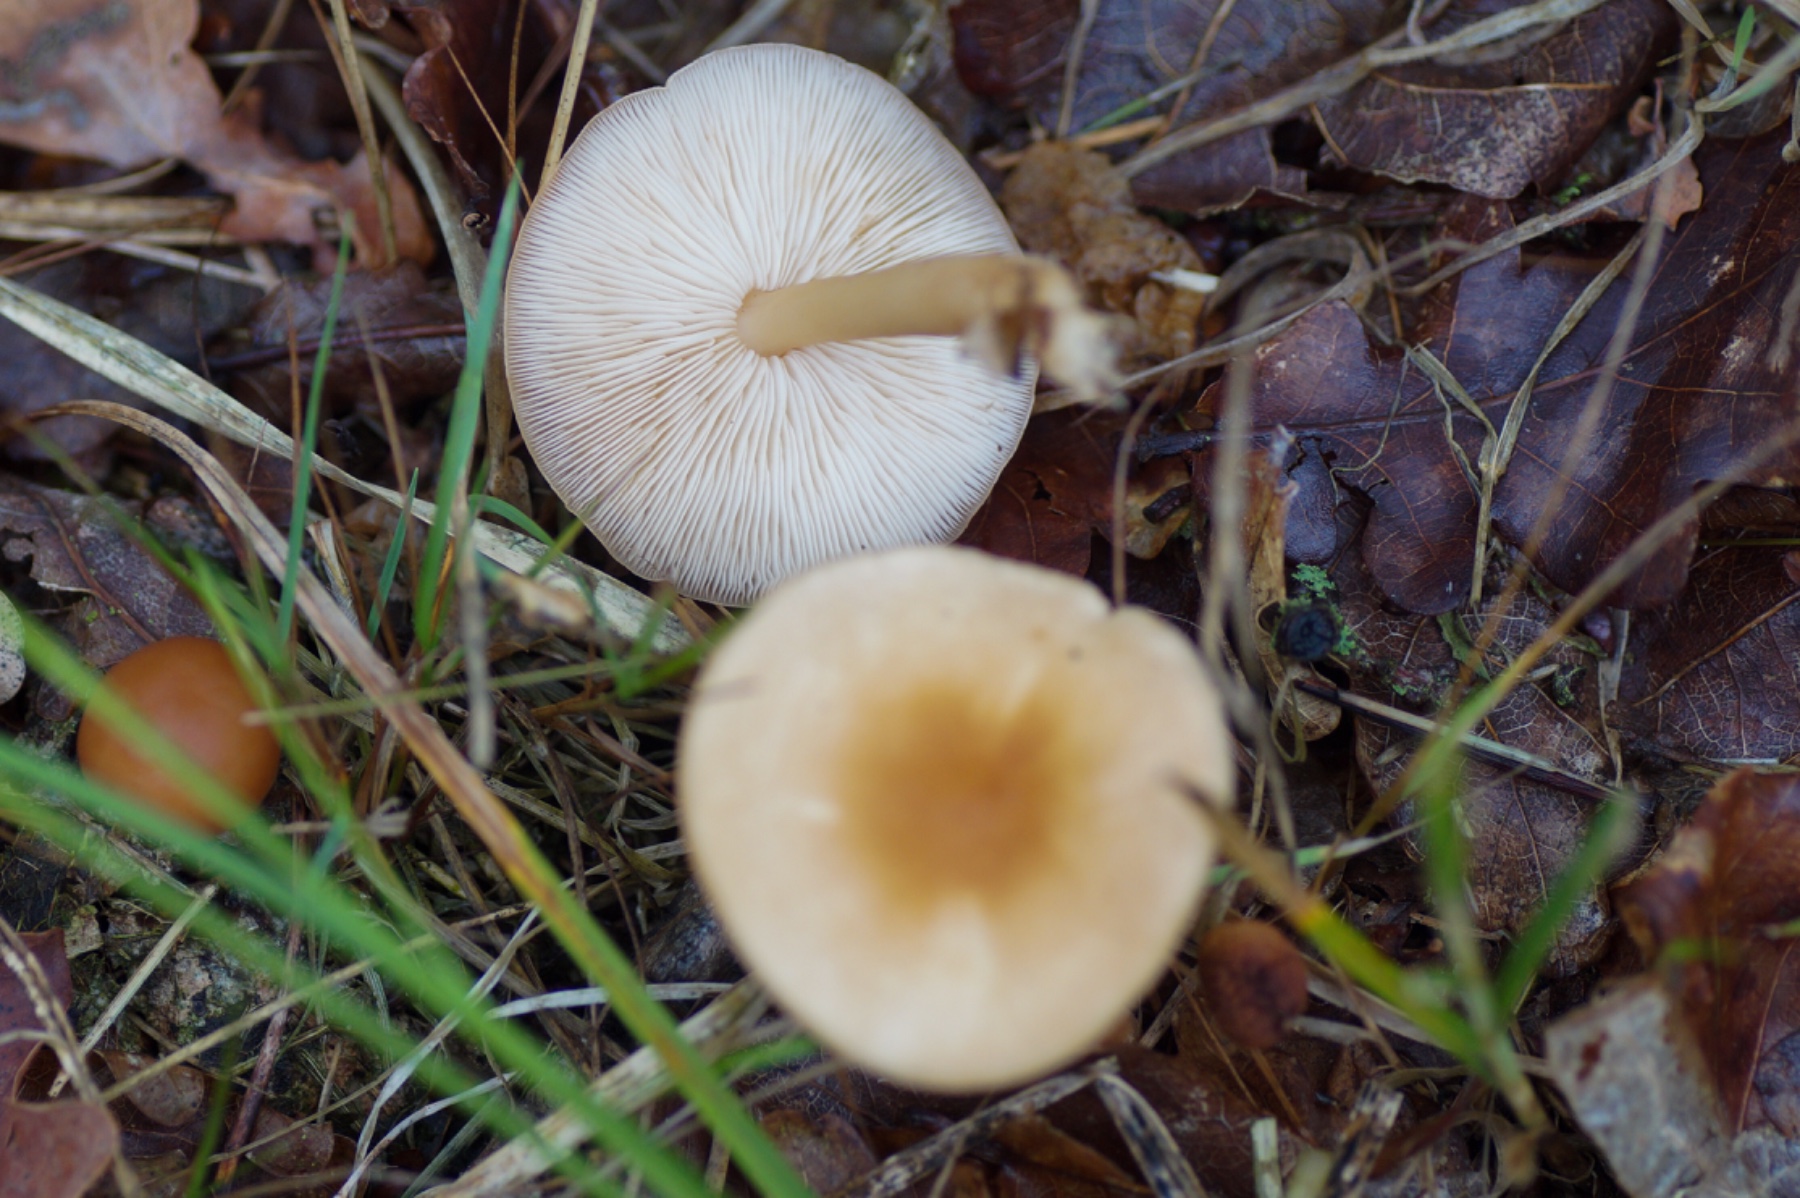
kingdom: Fungi
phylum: Basidiomycota
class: Agaricomycetes
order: Agaricales
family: Omphalotaceae
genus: Gymnopus
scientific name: Gymnopus
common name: fladhat
